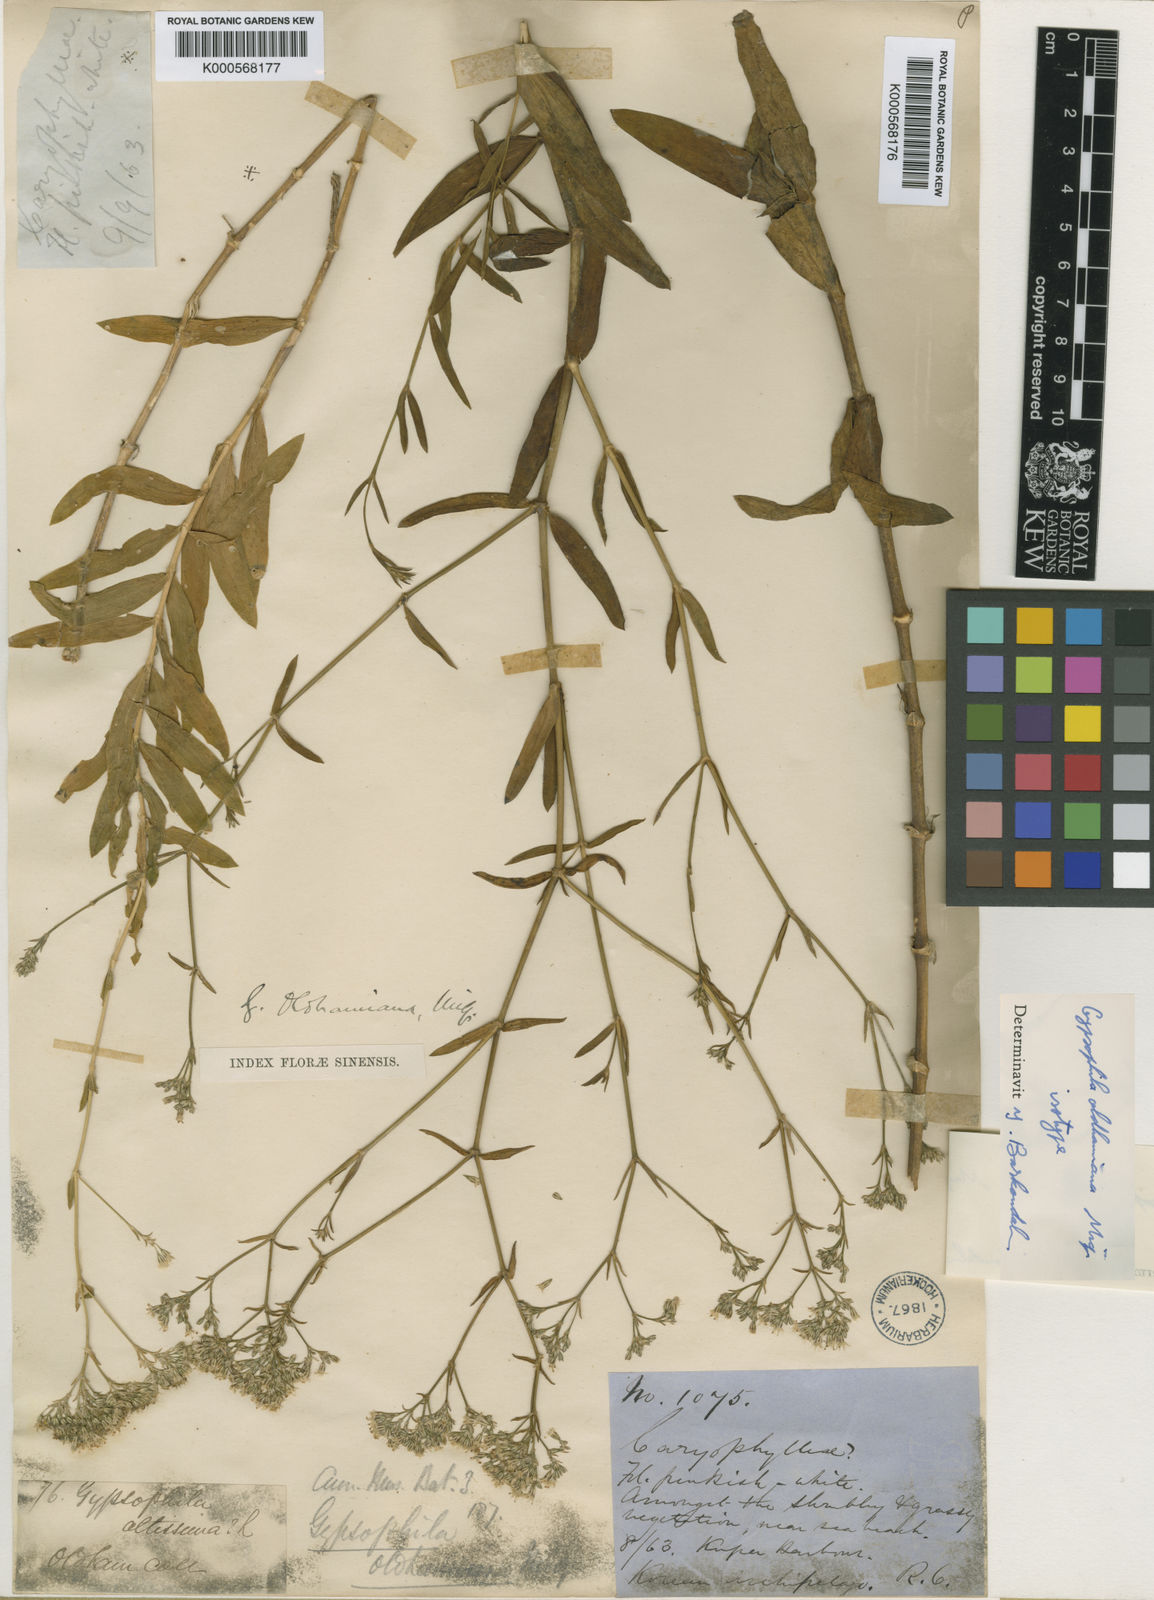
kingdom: Plantae
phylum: Tracheophyta
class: Magnoliopsida
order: Caryophyllales
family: Caryophyllaceae
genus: Gypsophila
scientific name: Gypsophila oldhamiana
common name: Oldham's baby's-breath
